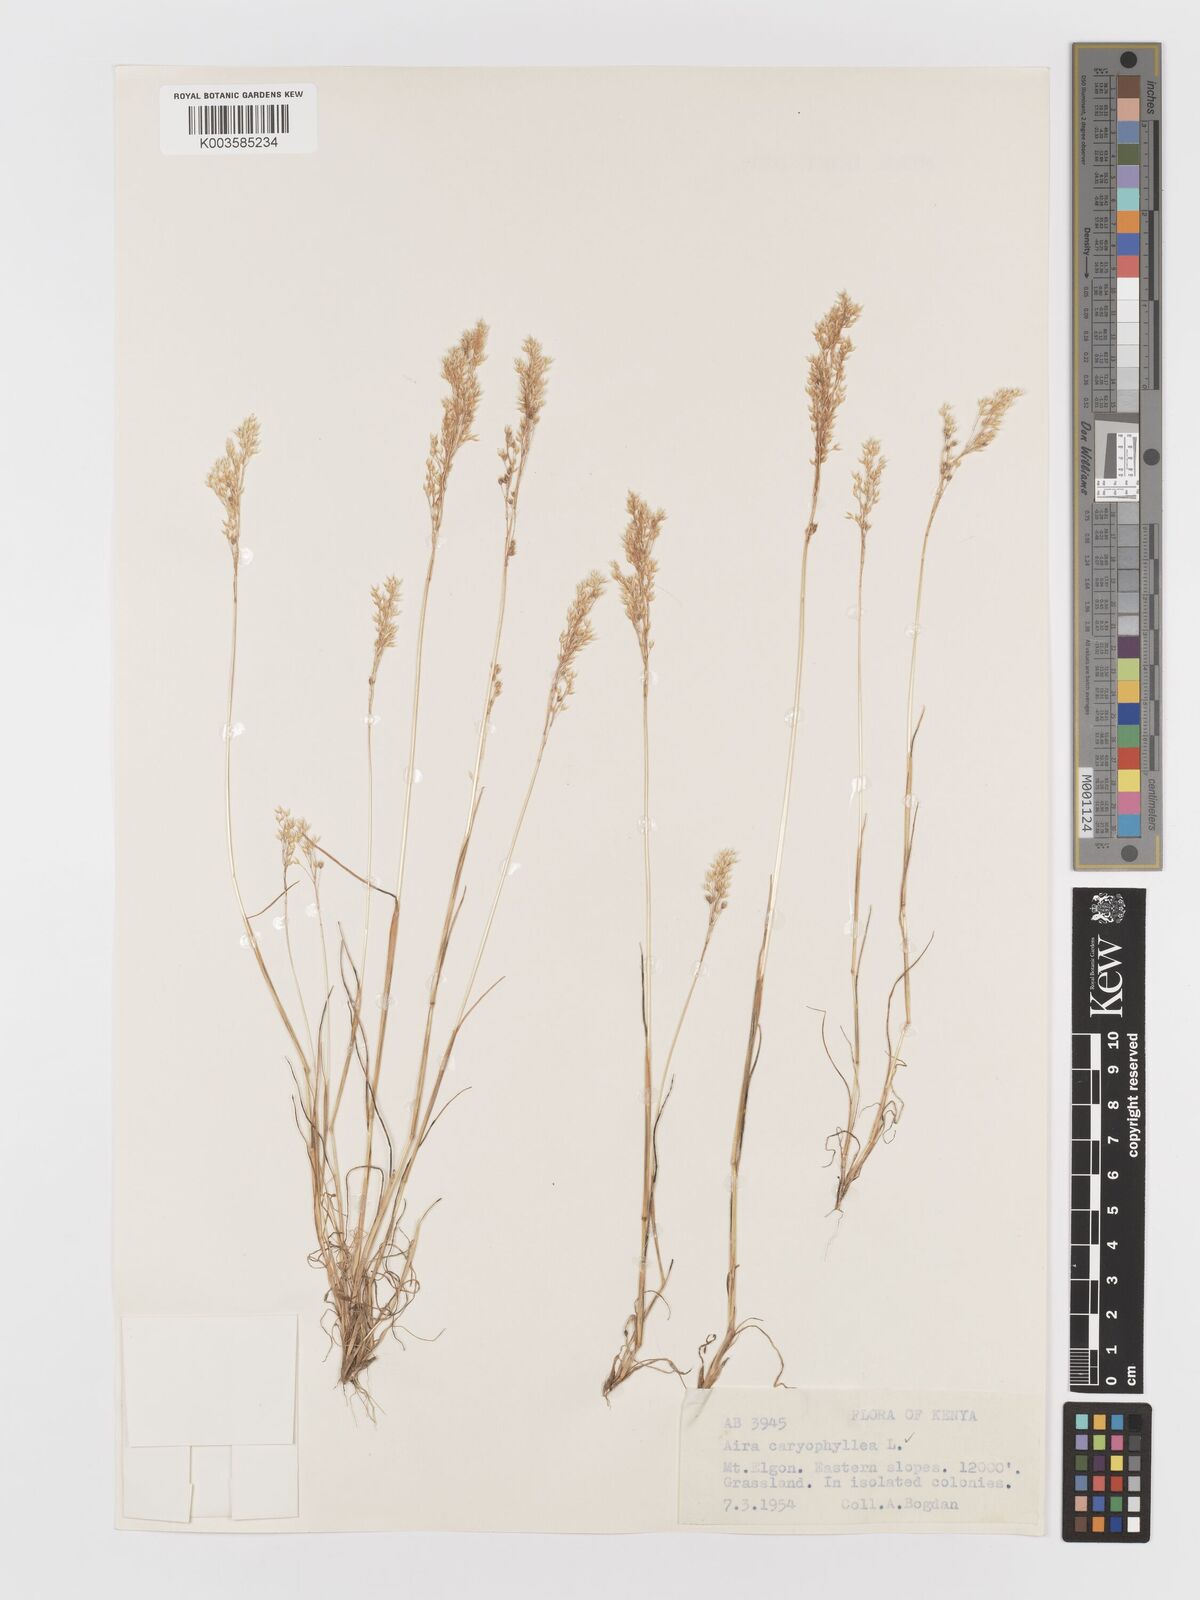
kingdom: Plantae
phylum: Tracheophyta
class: Liliopsida
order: Poales
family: Poaceae
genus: Aira
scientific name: Aira caryophyllea
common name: Silver hairgrass
